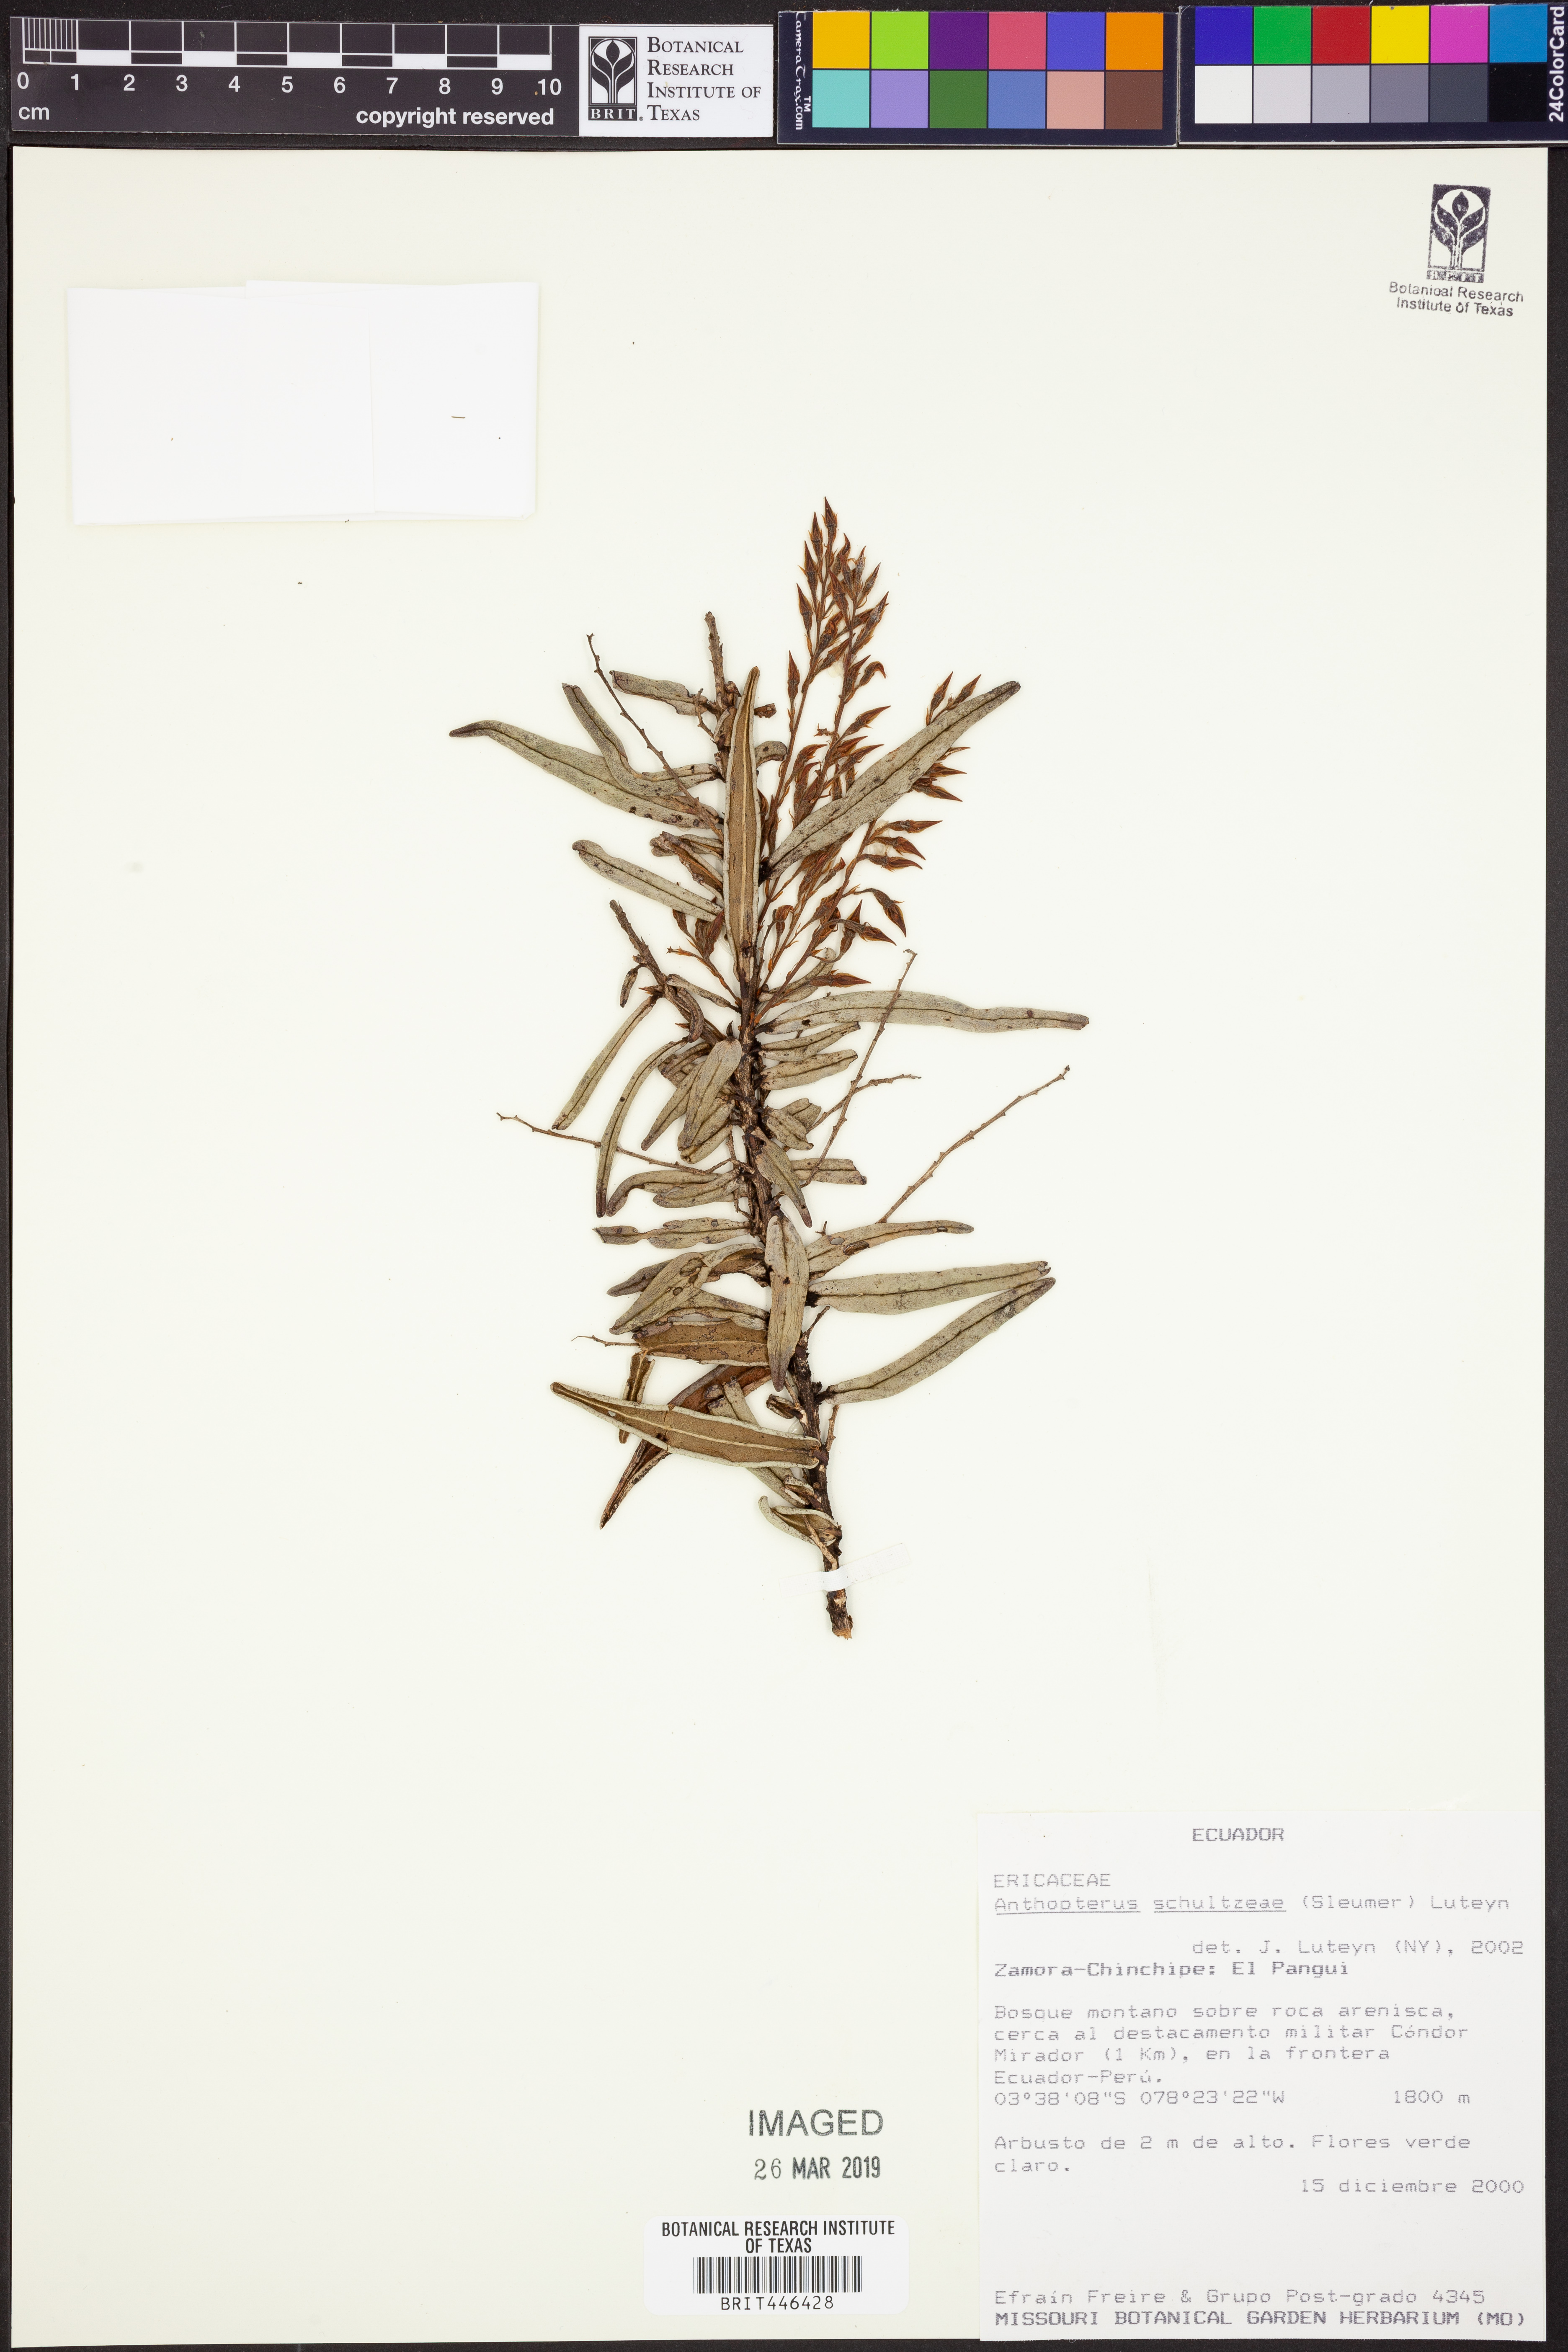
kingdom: Plantae
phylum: Tracheophyta
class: Magnoliopsida
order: Ericales
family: Ericaceae
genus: Anthopterus
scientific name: Anthopterus schultzeae
